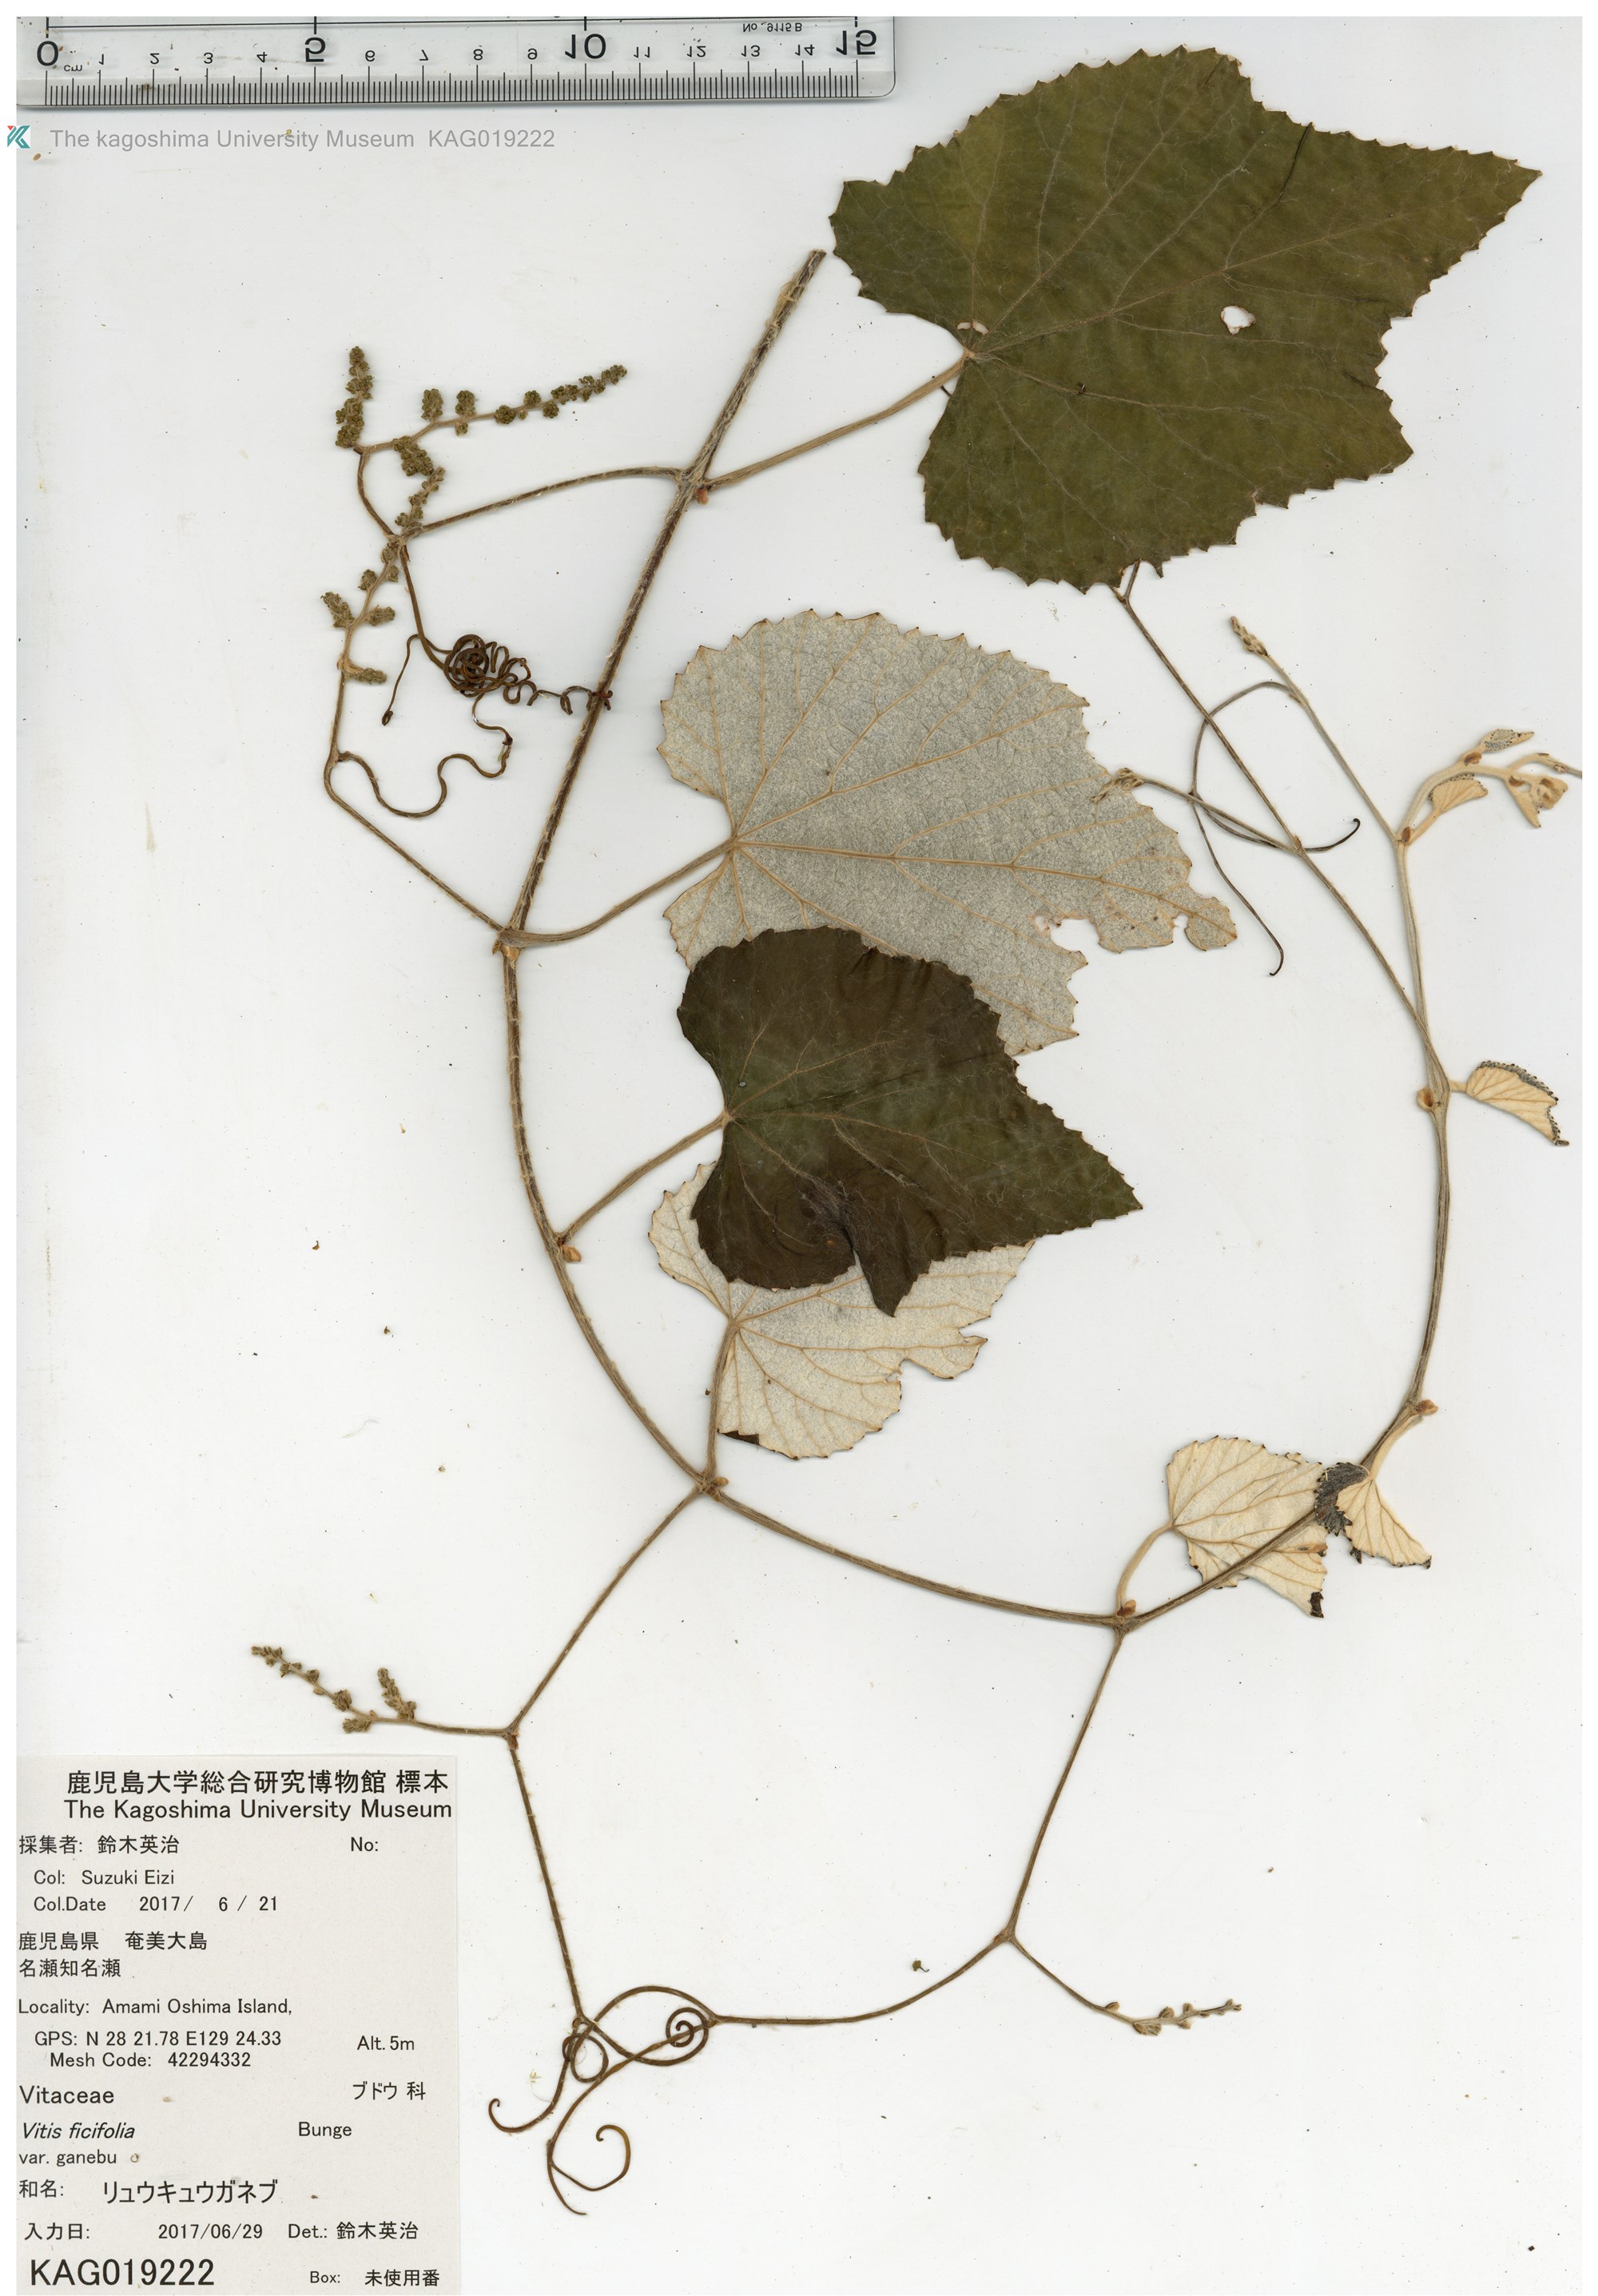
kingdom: Plantae
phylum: Tracheophyta
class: Magnoliopsida
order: Vitales
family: Vitaceae
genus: Vitis
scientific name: Vitis ficifolia
